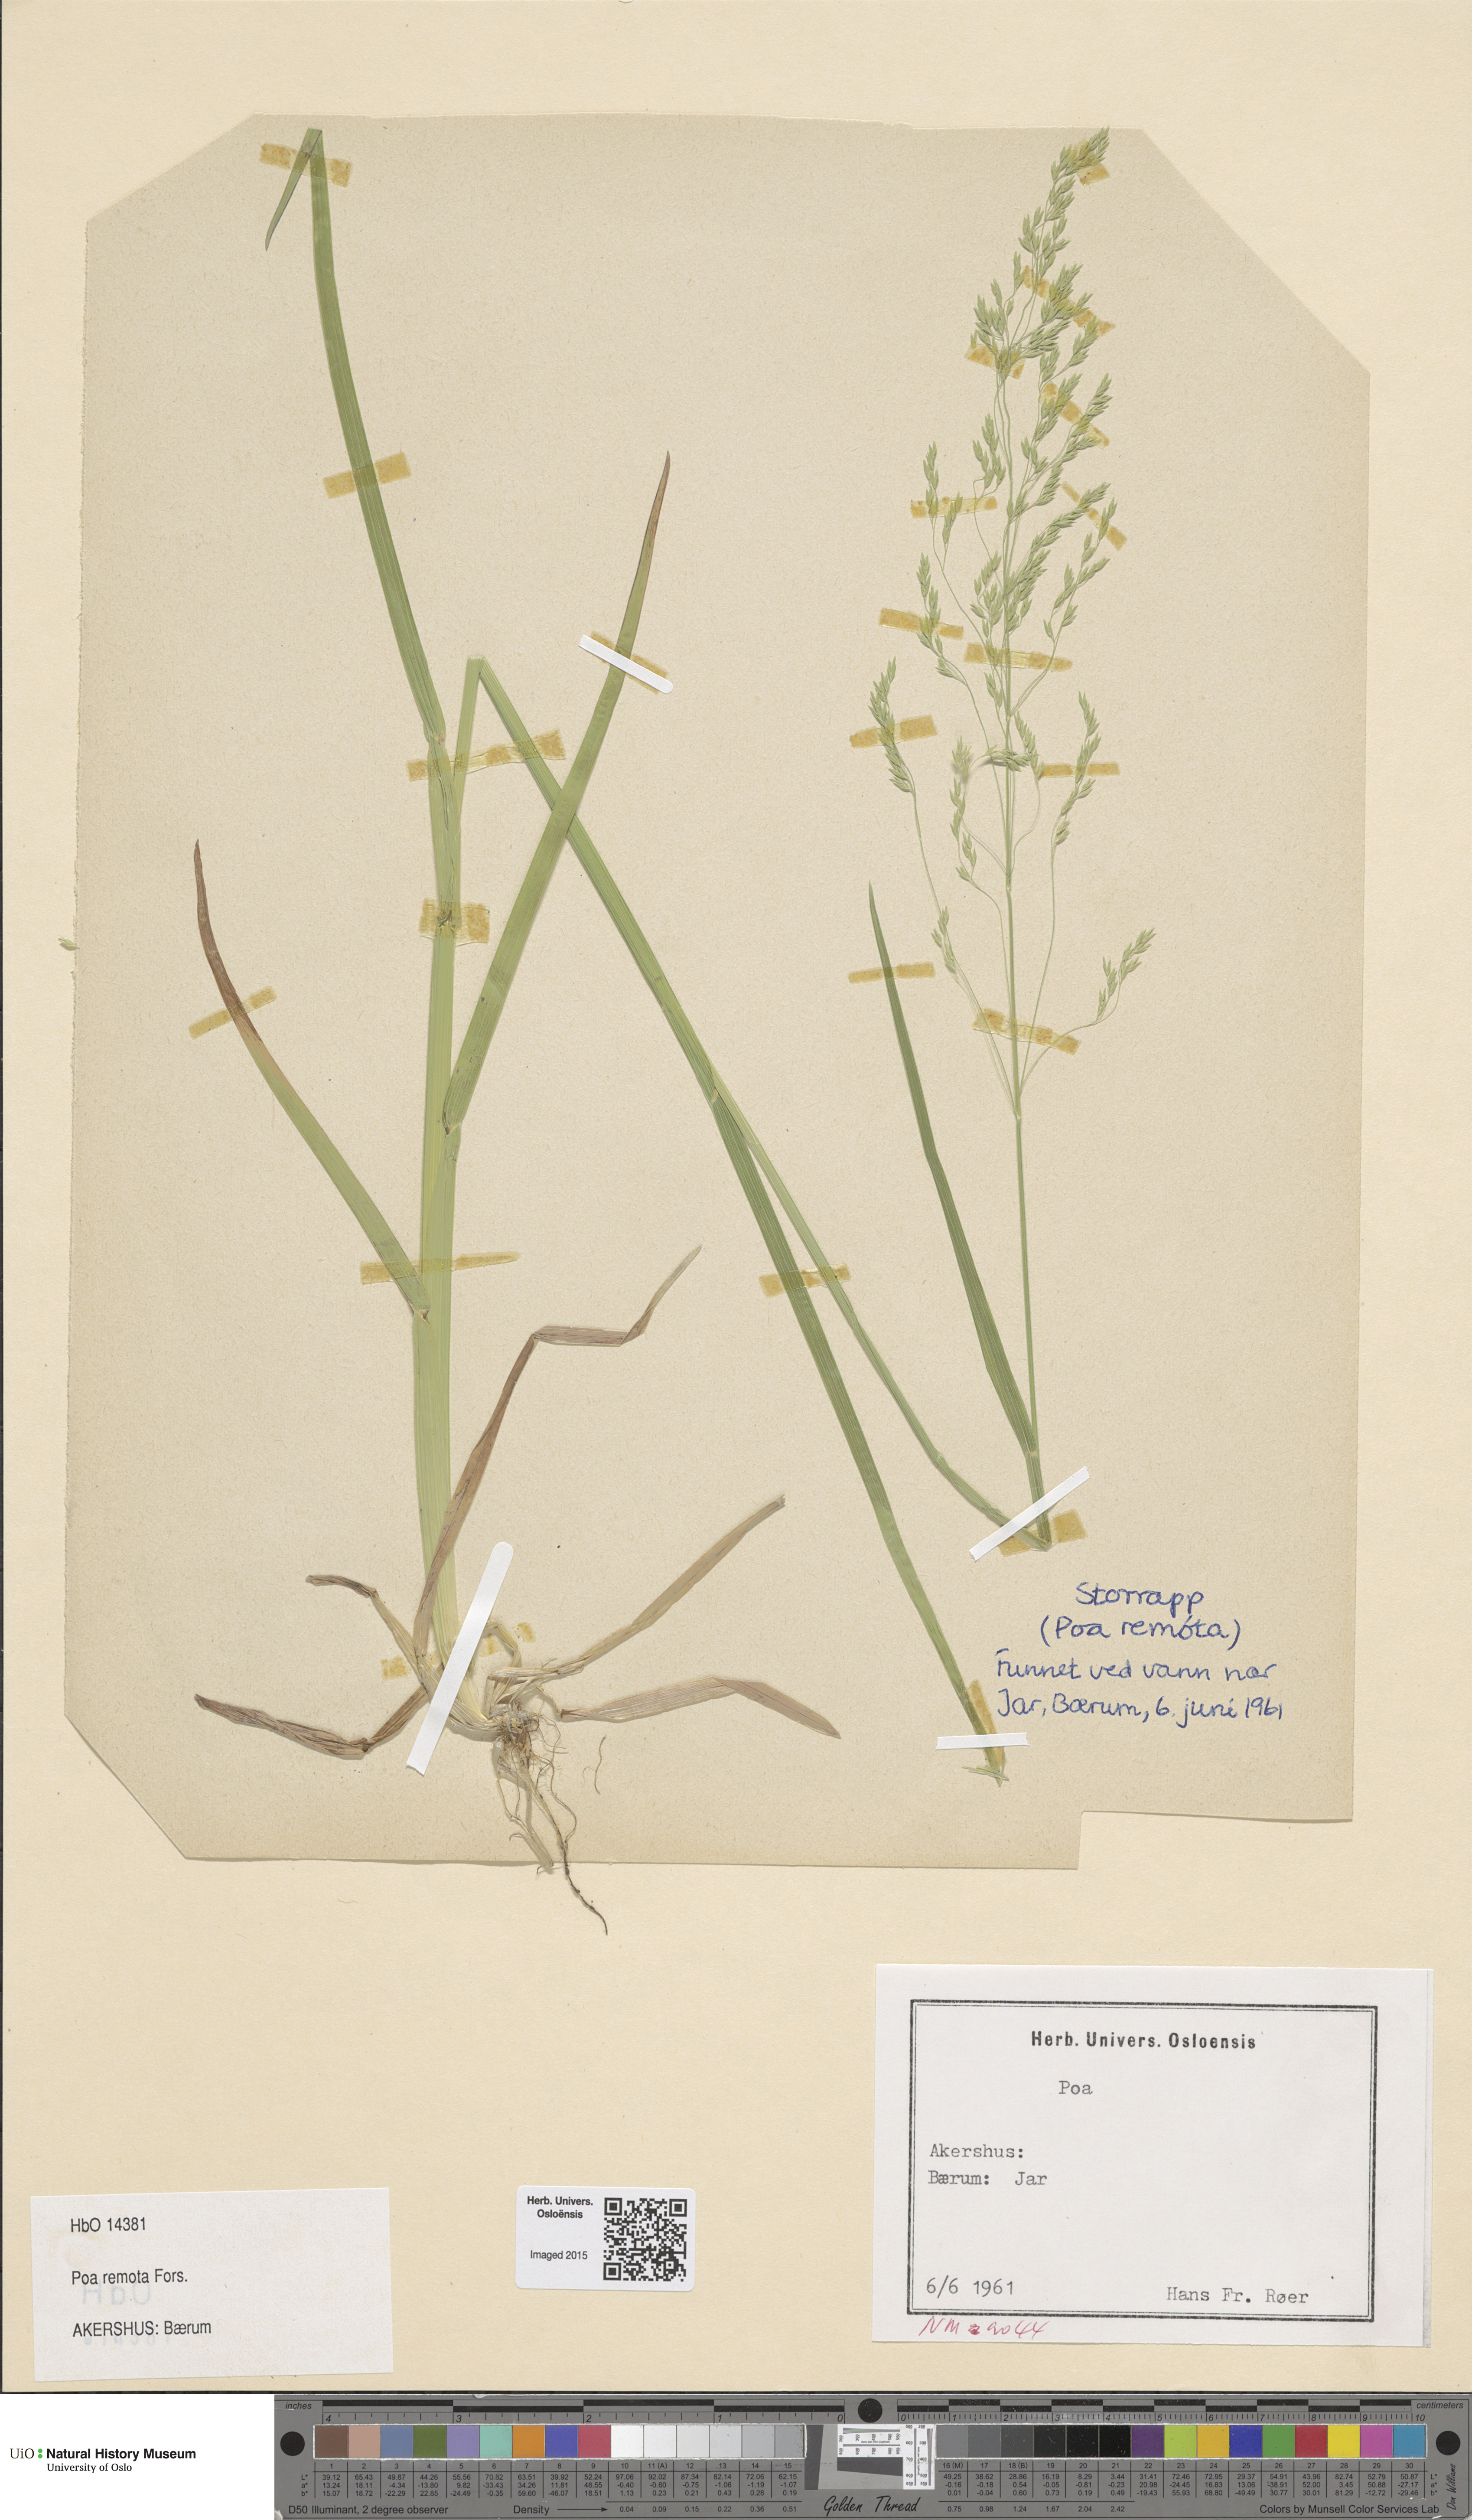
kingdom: Plantae
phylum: Tracheophyta
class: Liliopsida
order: Poales
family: Poaceae
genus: Poa
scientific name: Poa remota
